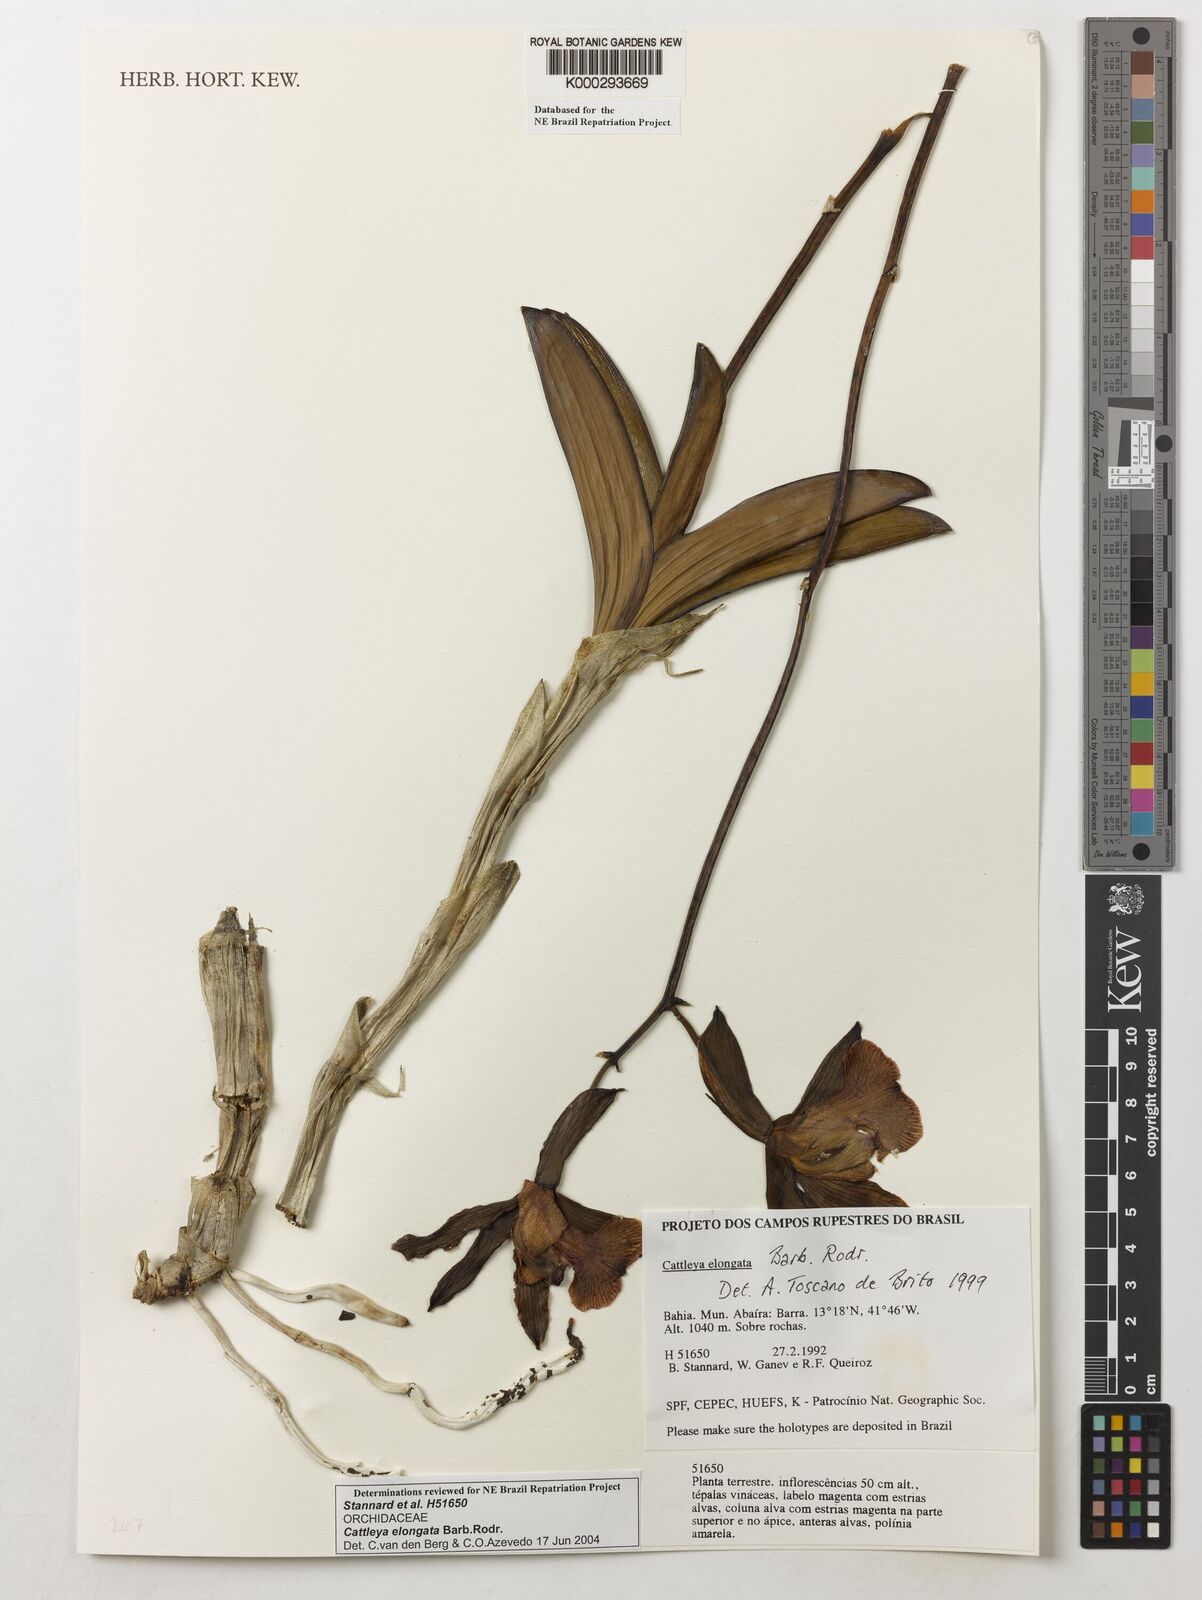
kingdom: Plantae
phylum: Tracheophyta
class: Liliopsida
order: Asparagales
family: Orchidaceae
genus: Cattleya
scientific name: Cattleya elongata
